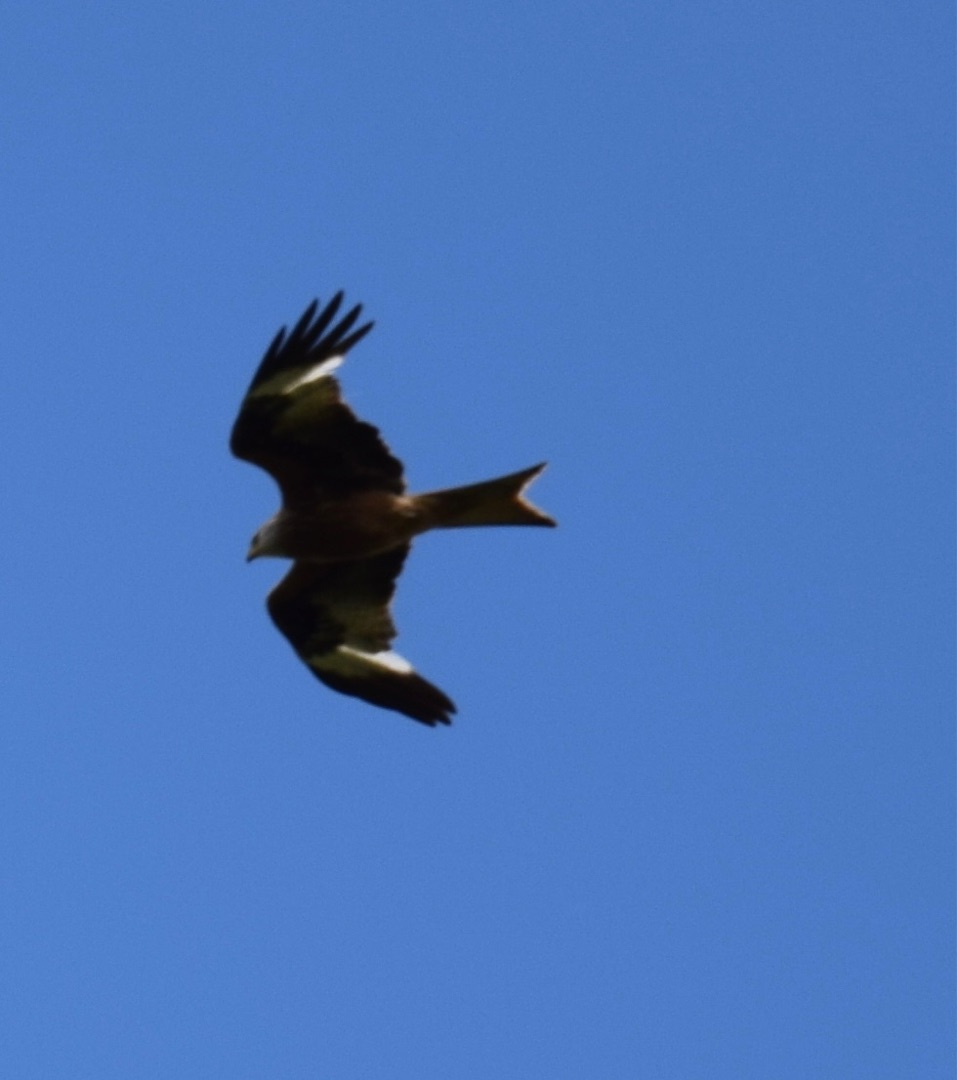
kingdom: Animalia
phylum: Chordata
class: Aves
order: Accipitriformes
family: Accipitridae
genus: Milvus
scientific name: Milvus milvus
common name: Rød glente
